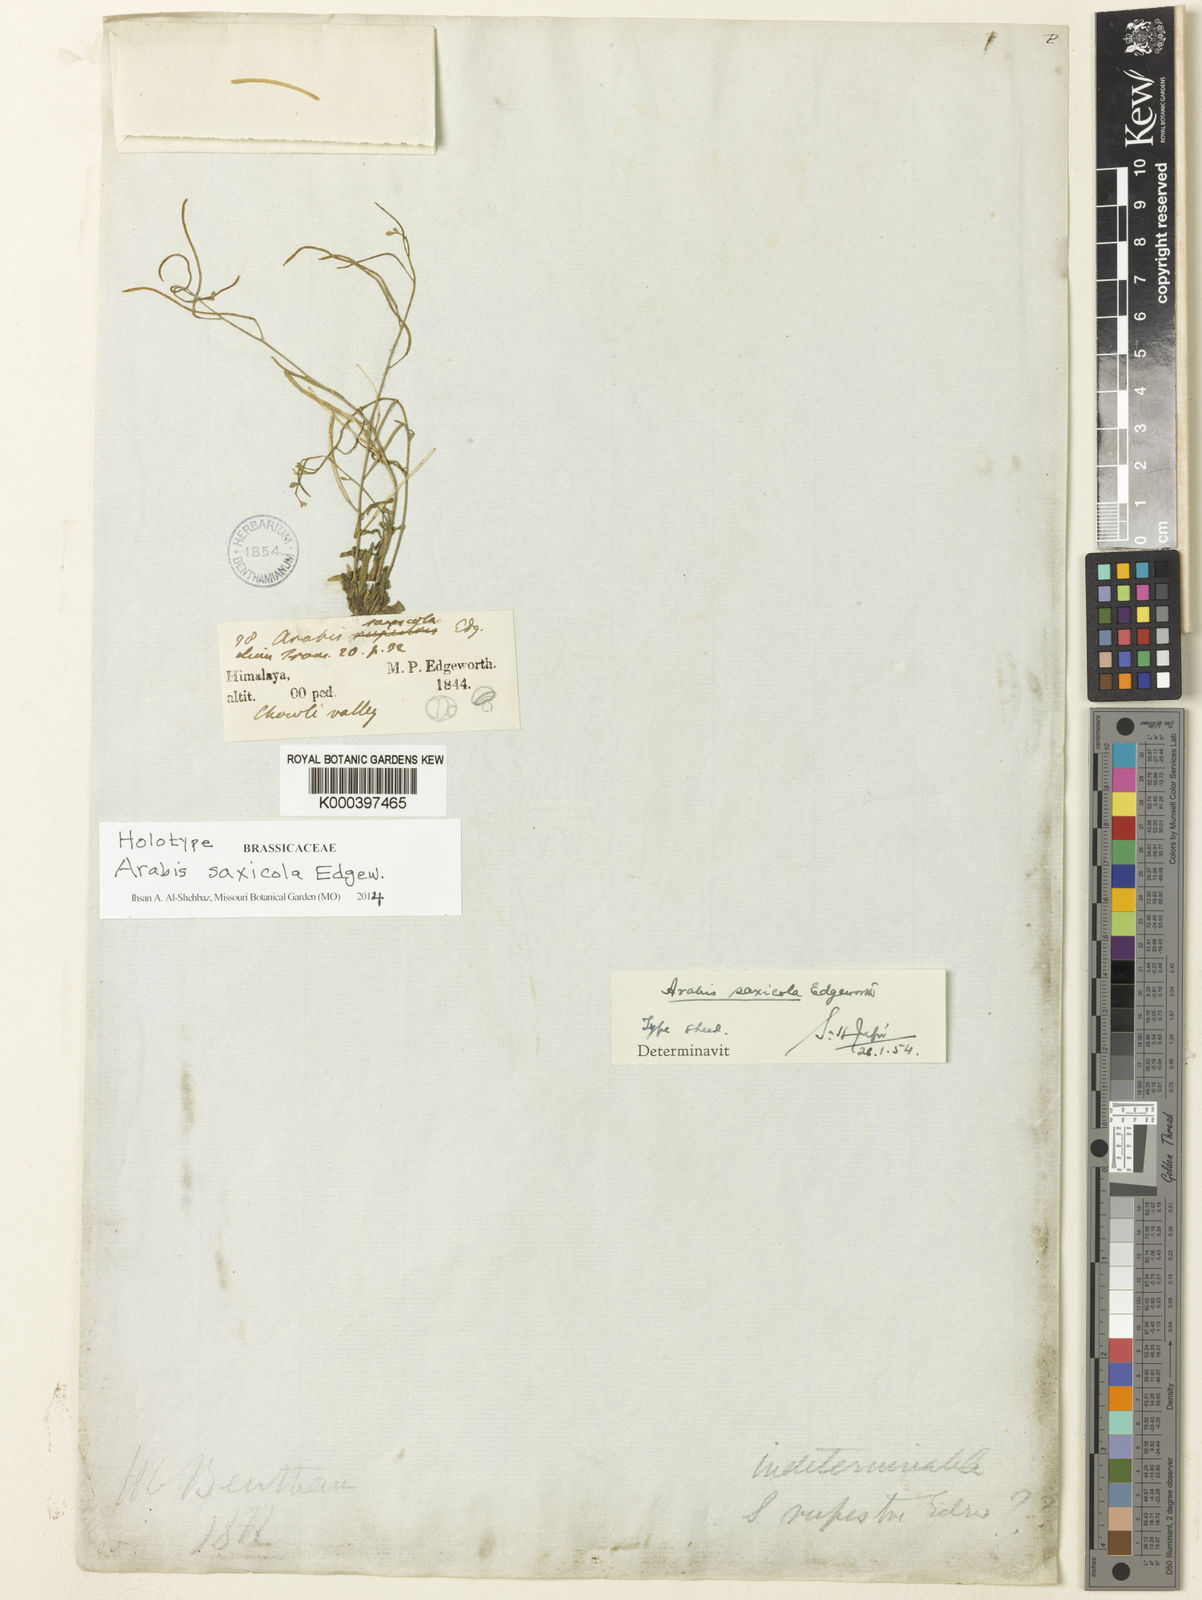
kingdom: Plantae
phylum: Tracheophyta
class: Magnoliopsida
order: Brassicales
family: Brassicaceae
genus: Scapiarabis
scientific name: Scapiarabis saxicola
